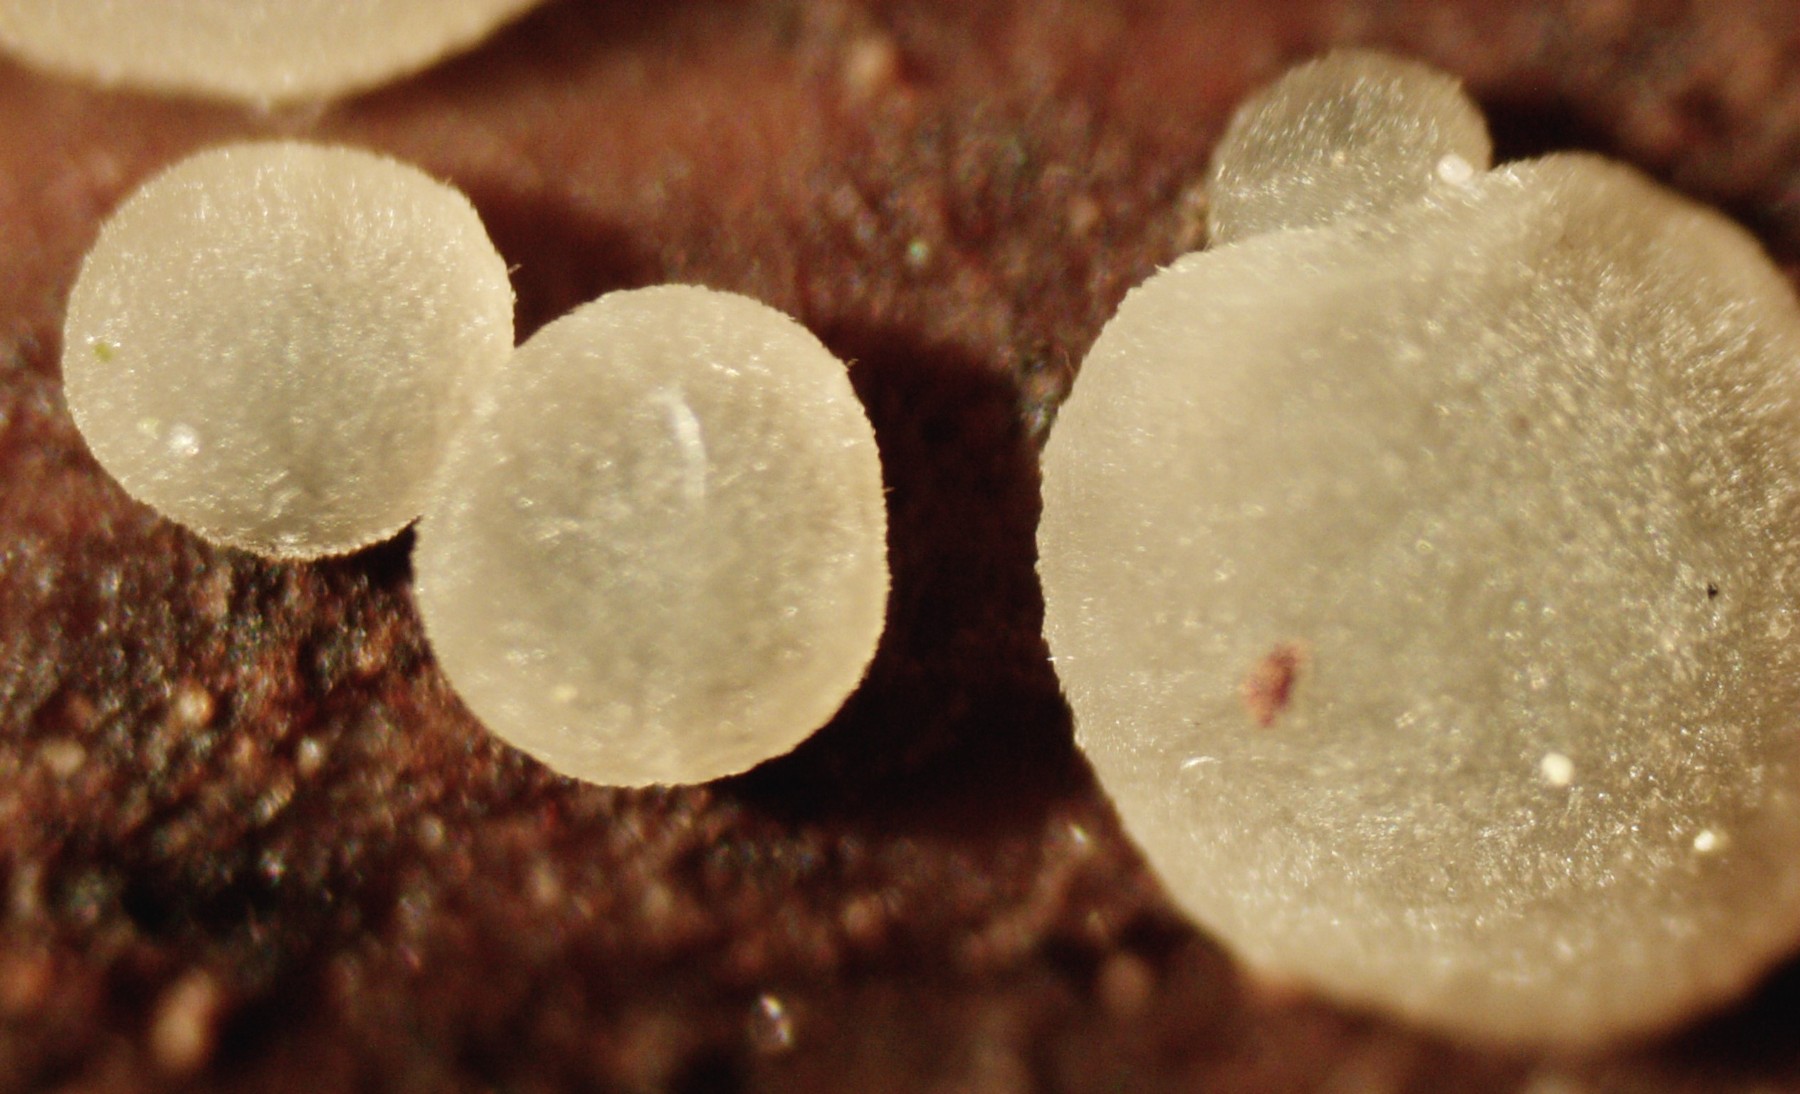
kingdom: Fungi
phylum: Ascomycota
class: Leotiomycetes
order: Helotiales
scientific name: Helotiales
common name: stilkskiveordenen
